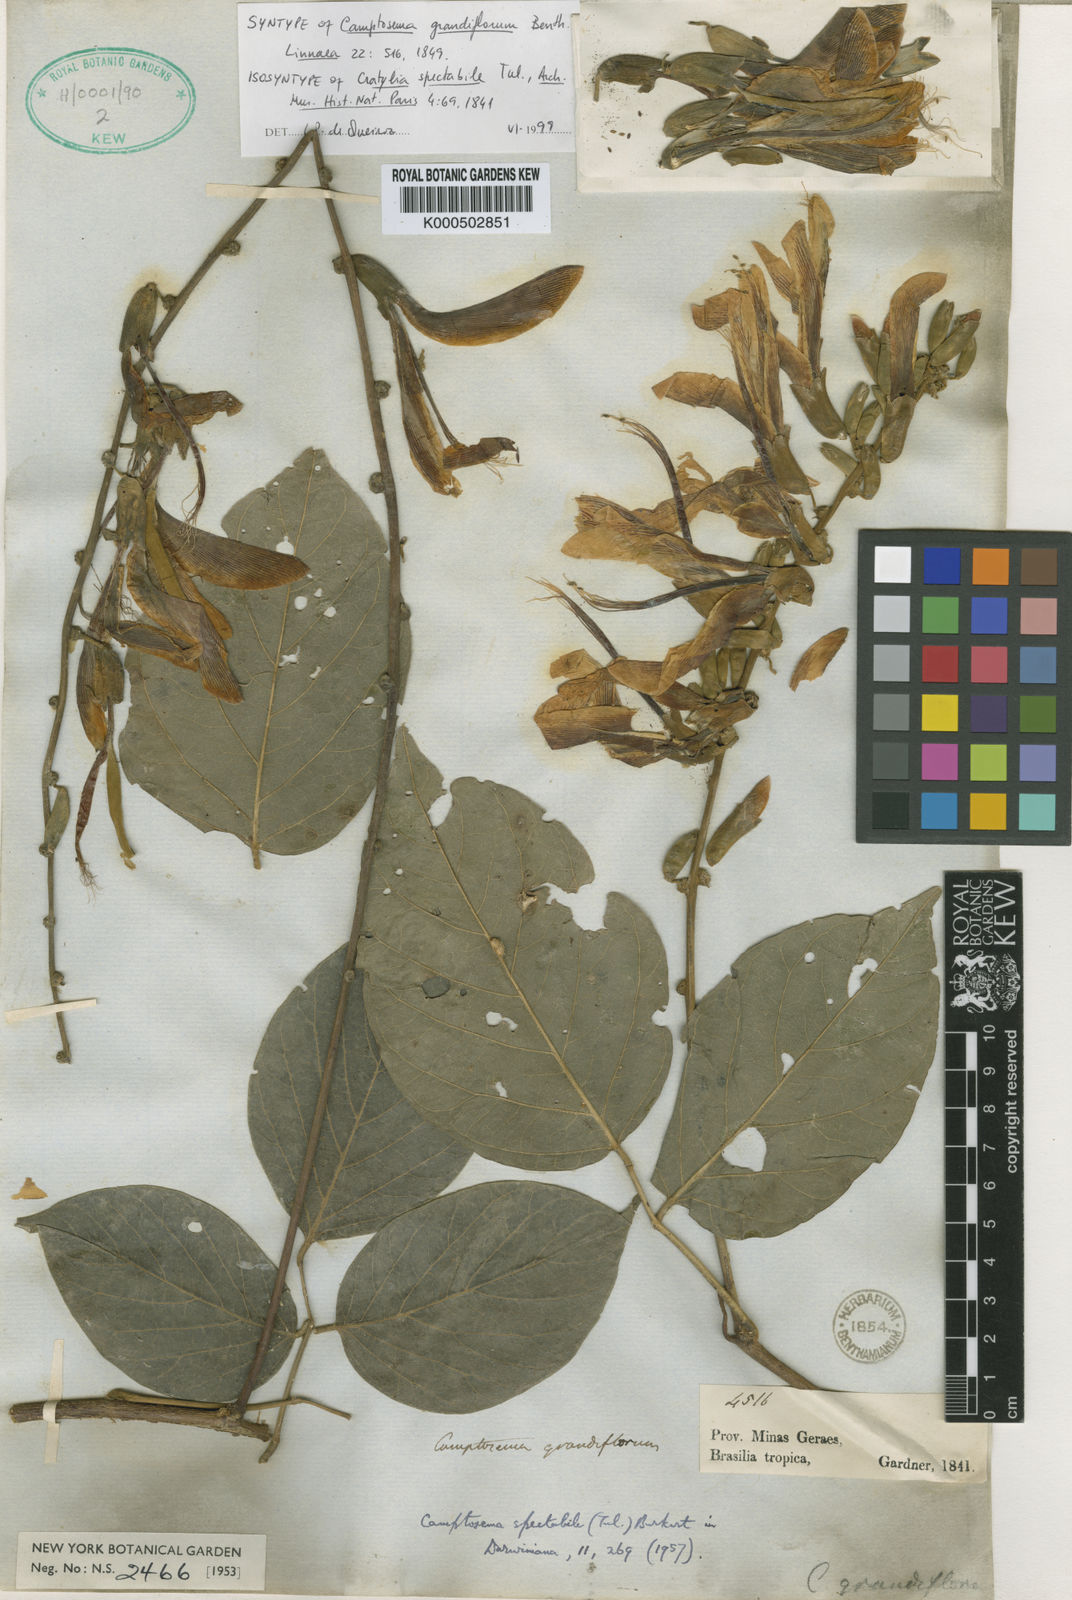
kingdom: Plantae
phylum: Tracheophyta
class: Magnoliopsida
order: Fabales
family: Fabaceae
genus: Camptosema
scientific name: Camptosema spectabile
